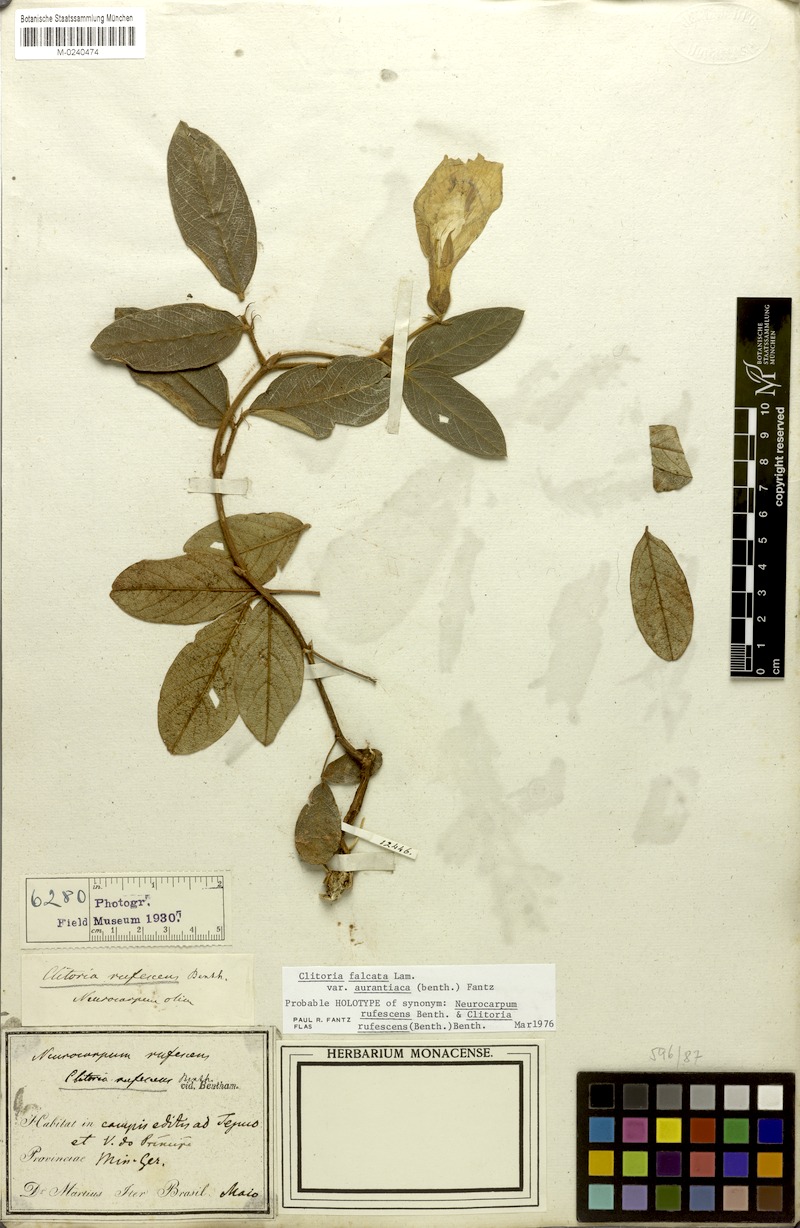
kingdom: Plantae
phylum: Tracheophyta
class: Magnoliopsida
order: Fabales
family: Fabaceae
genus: Clitoria
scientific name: Clitoria falcata
